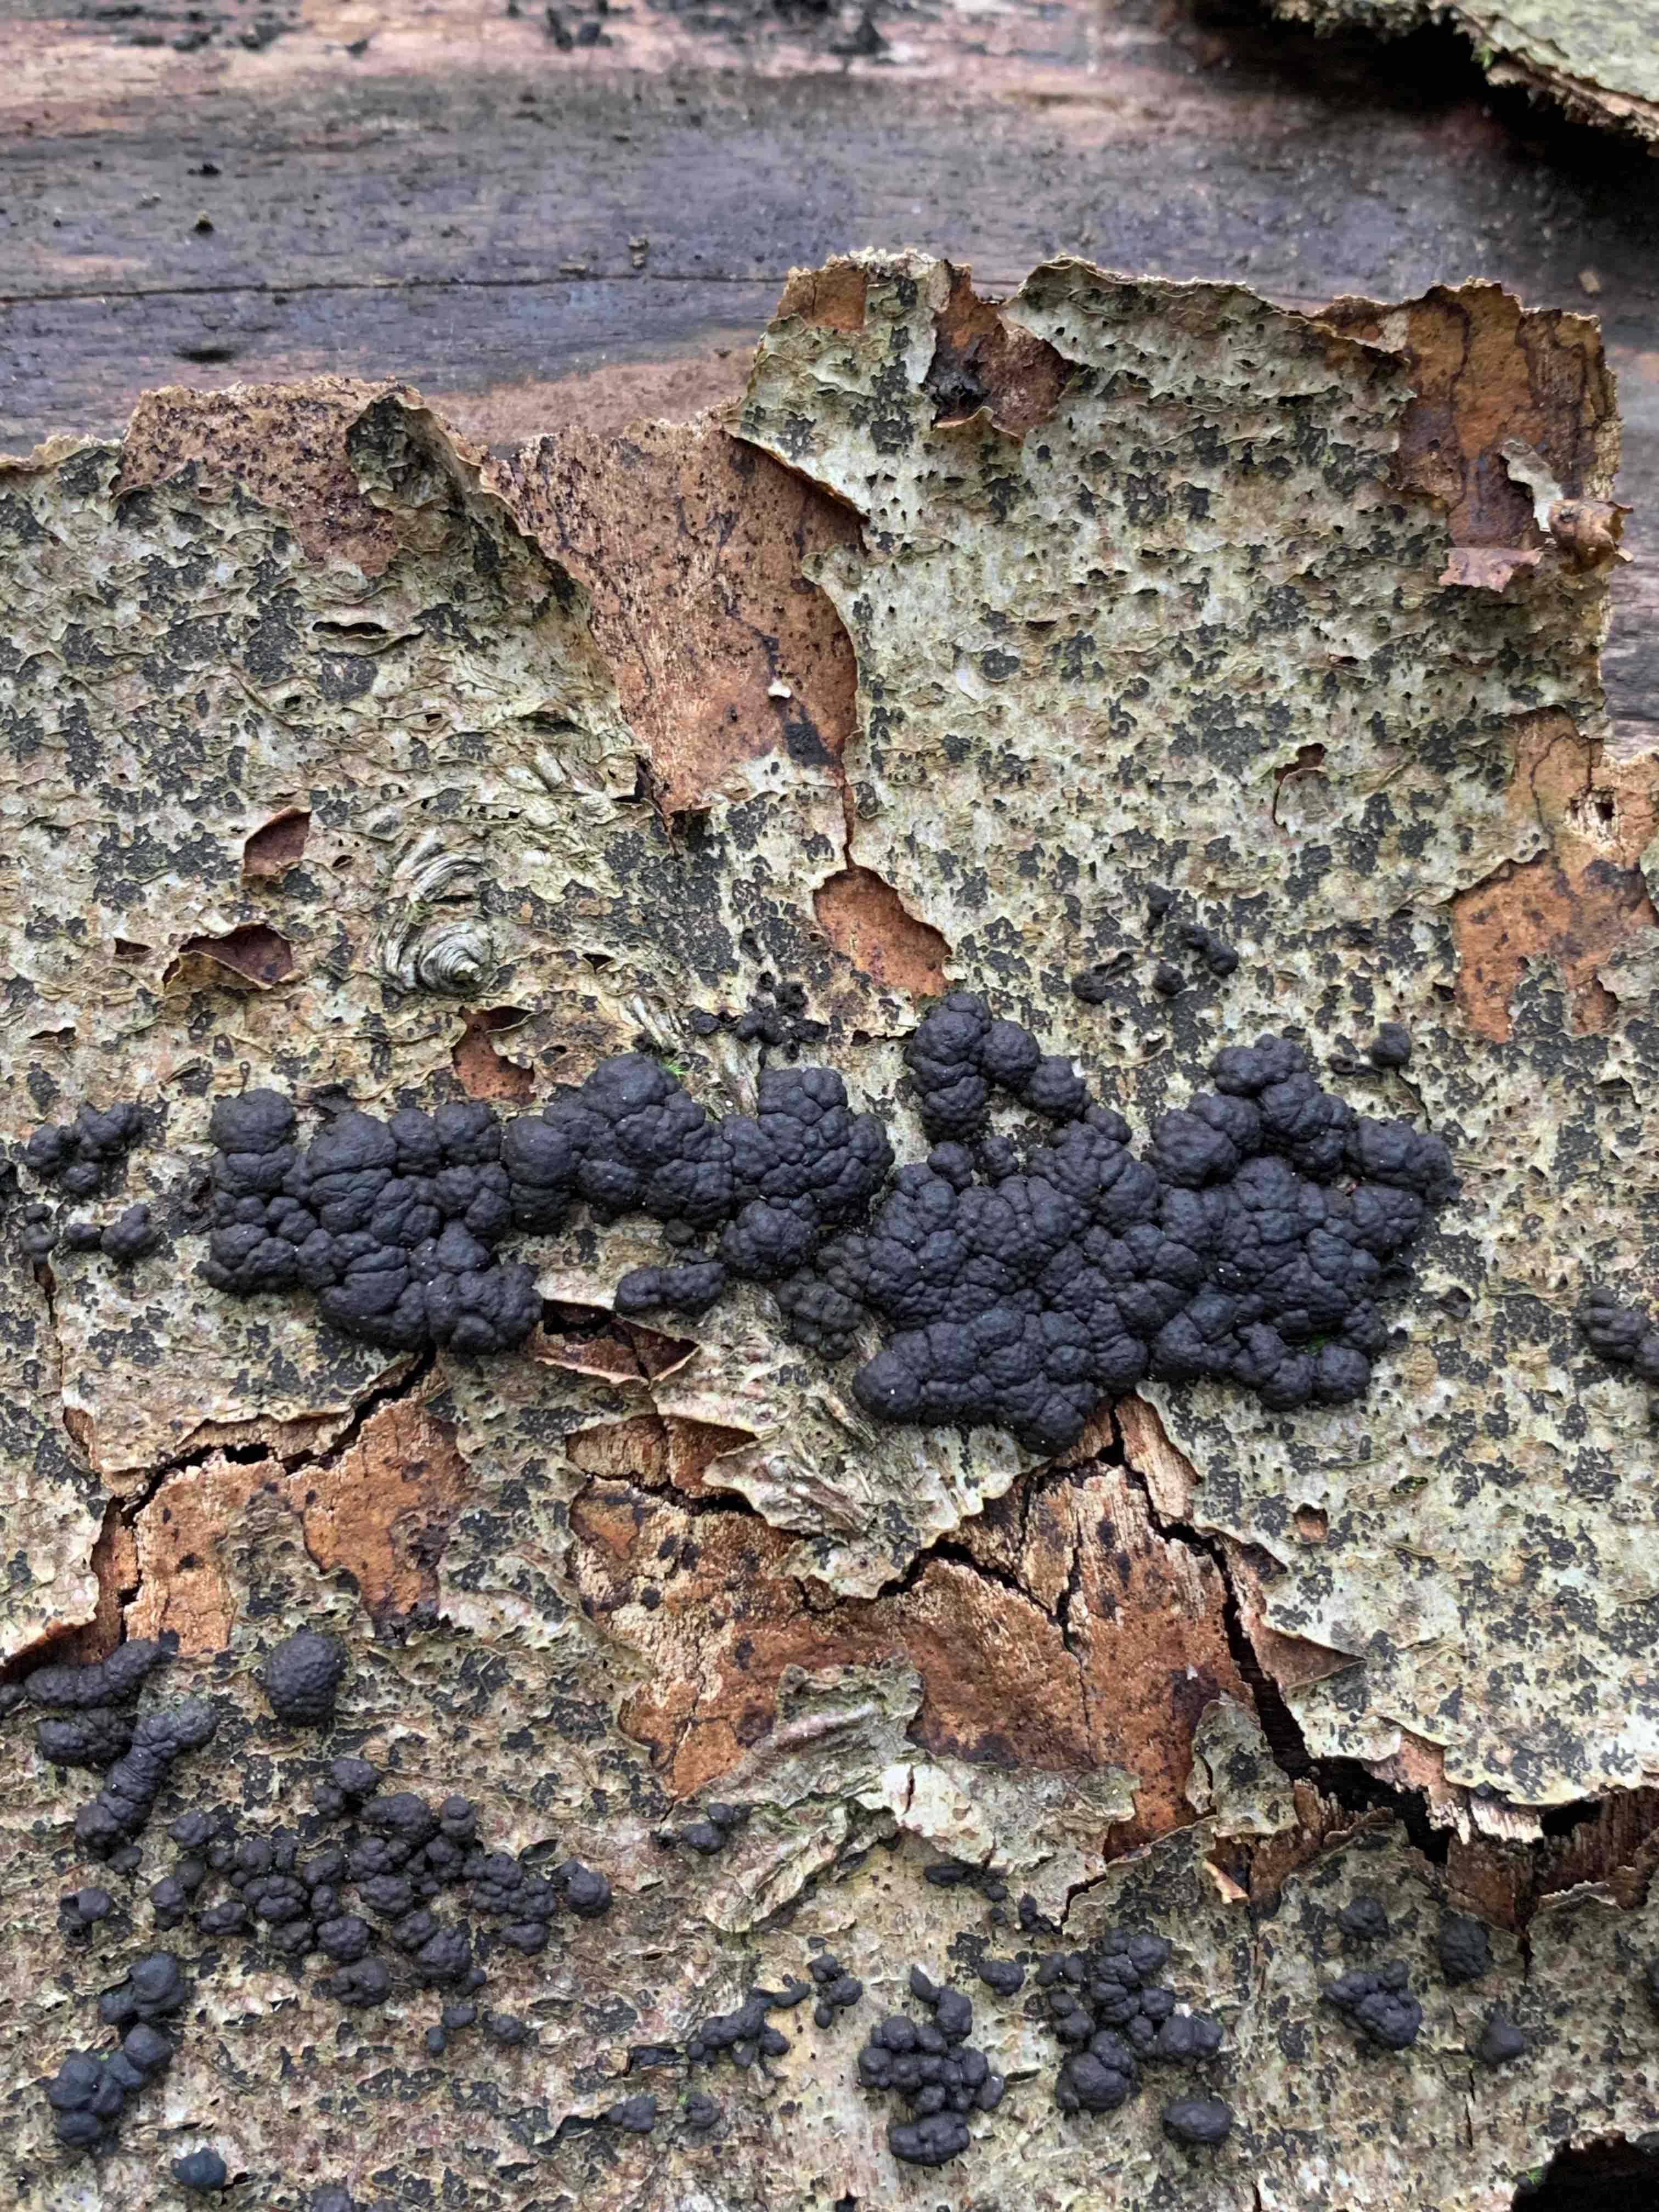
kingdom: Fungi
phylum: Ascomycota
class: Sordariomycetes
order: Xylariales
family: Hypoxylaceae
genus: Jackrogersella
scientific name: Jackrogersella cohaerens
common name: sammenflydende kulbær
